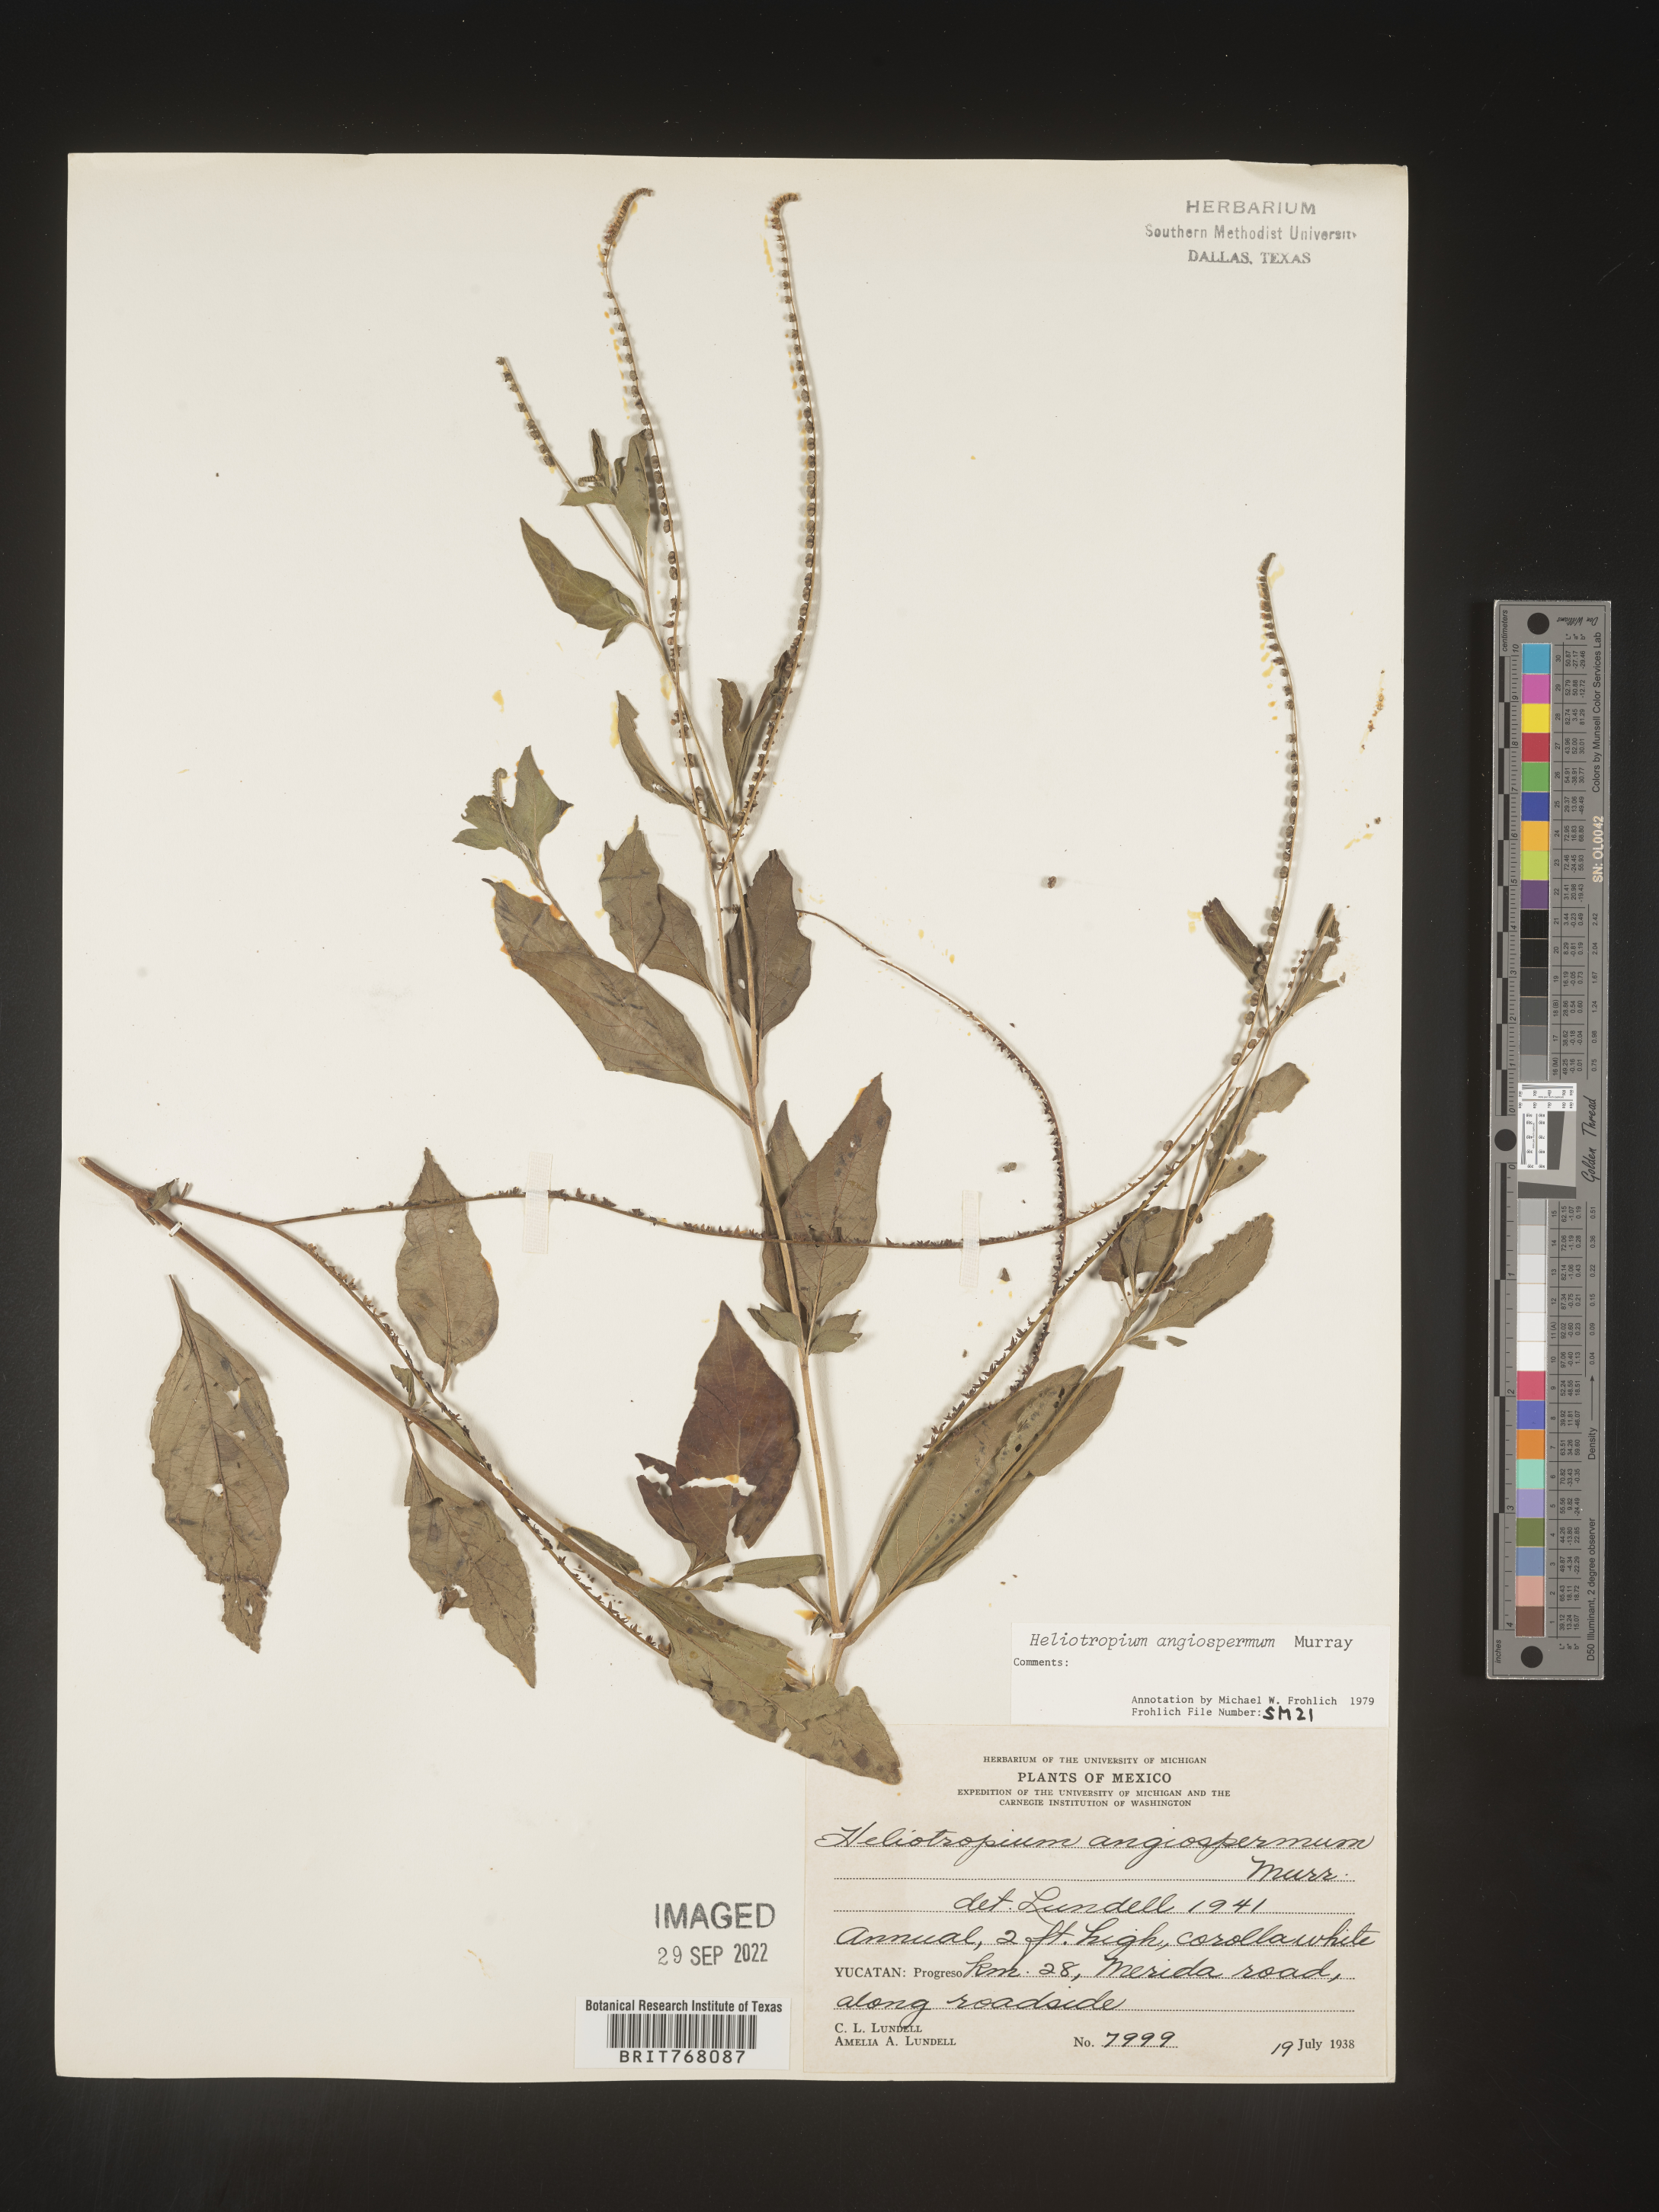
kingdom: Plantae
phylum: Tracheophyta
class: Magnoliopsida
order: Boraginales
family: Heliotropiaceae
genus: Heliotropium
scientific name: Heliotropium
